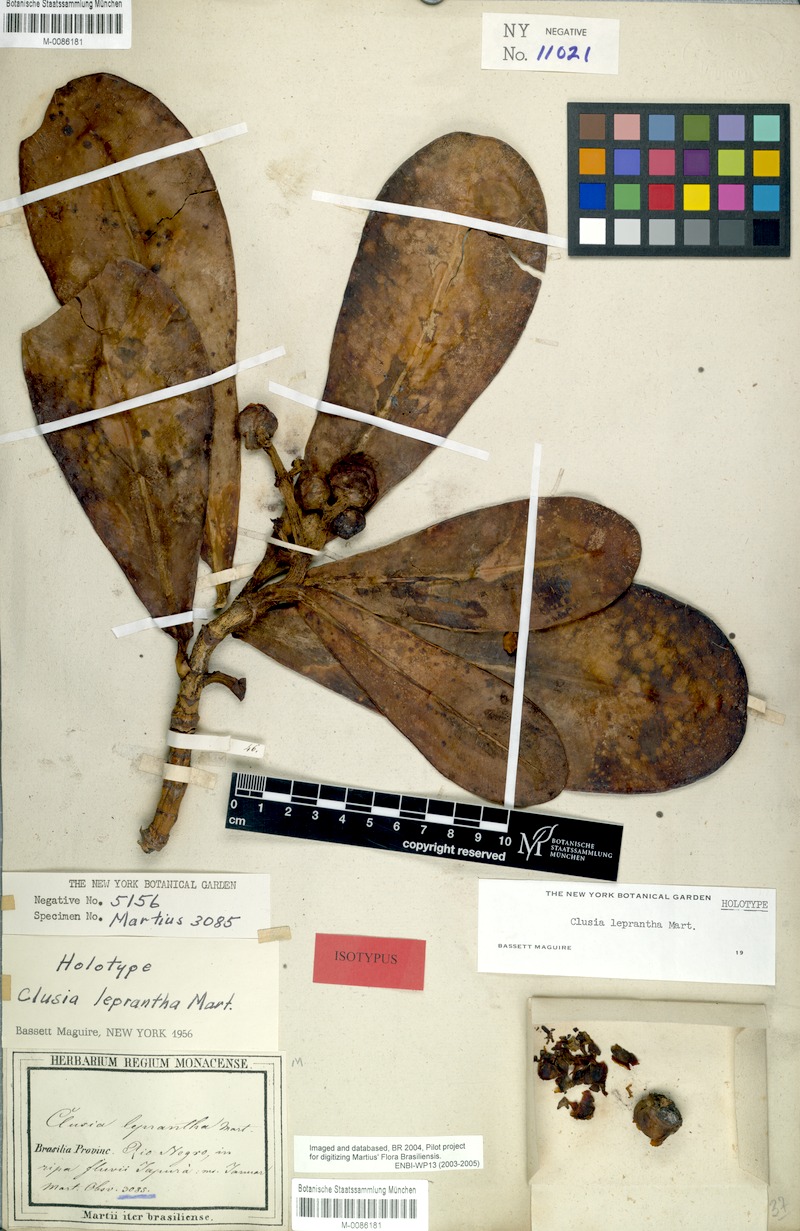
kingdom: Plantae
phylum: Tracheophyta
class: Magnoliopsida
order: Malpighiales
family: Clusiaceae
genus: Clusia
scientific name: Clusia leprantha
